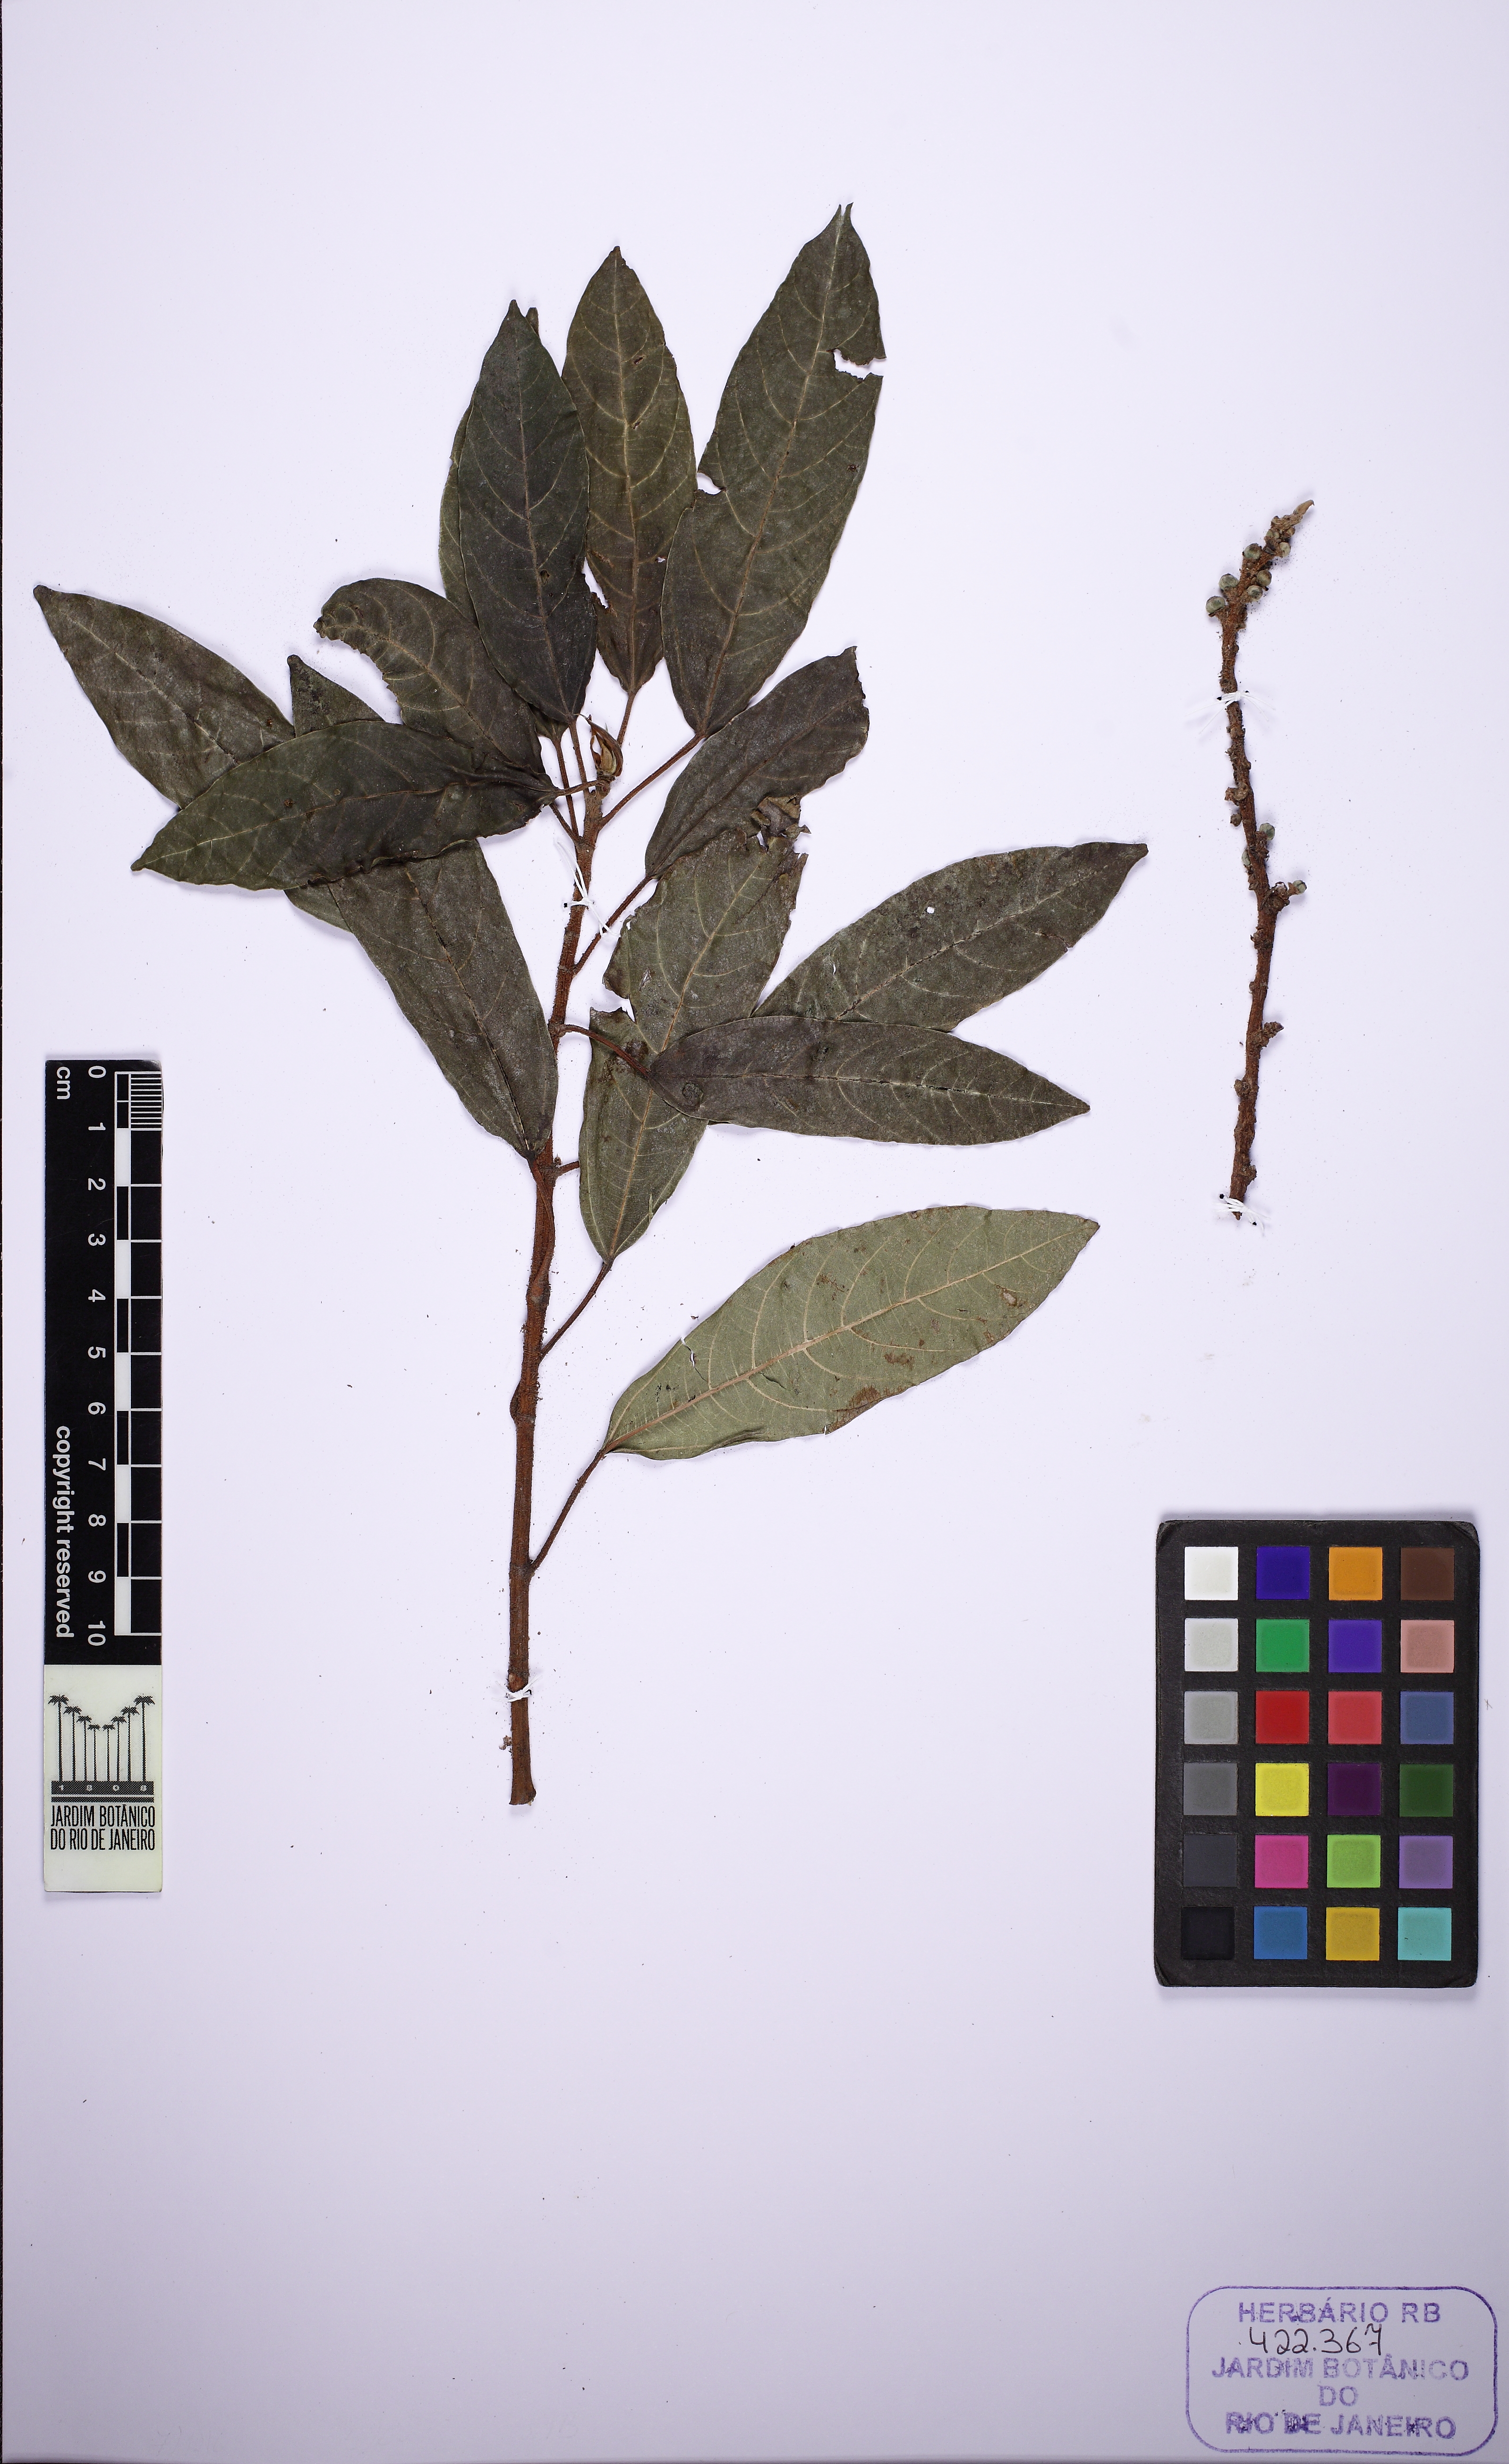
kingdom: Plantae
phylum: Tracheophyta
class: Magnoliopsida
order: Rosales
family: Moraceae
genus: Ficus
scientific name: Ficus racemosa
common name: Cluster fig
